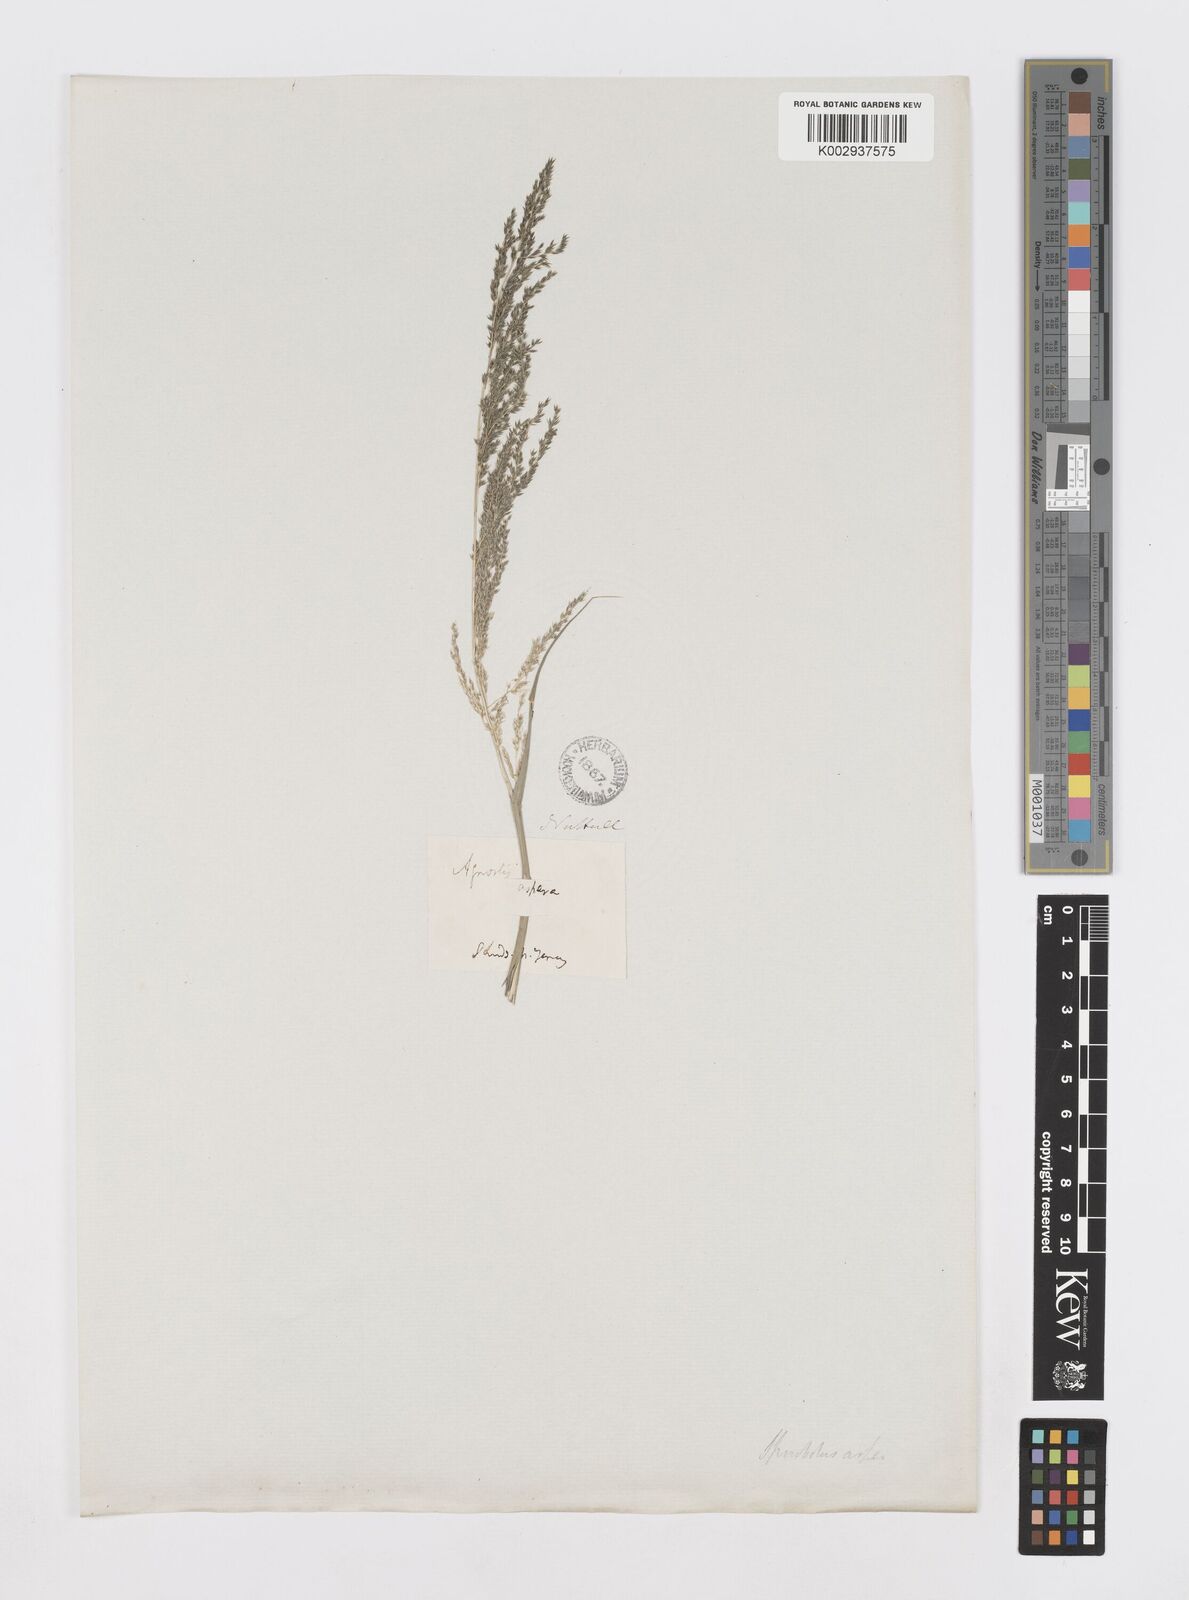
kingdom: Plantae
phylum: Tracheophyta
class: Liliopsida
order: Poales
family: Poaceae
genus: Sporobolus
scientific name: Sporobolus
